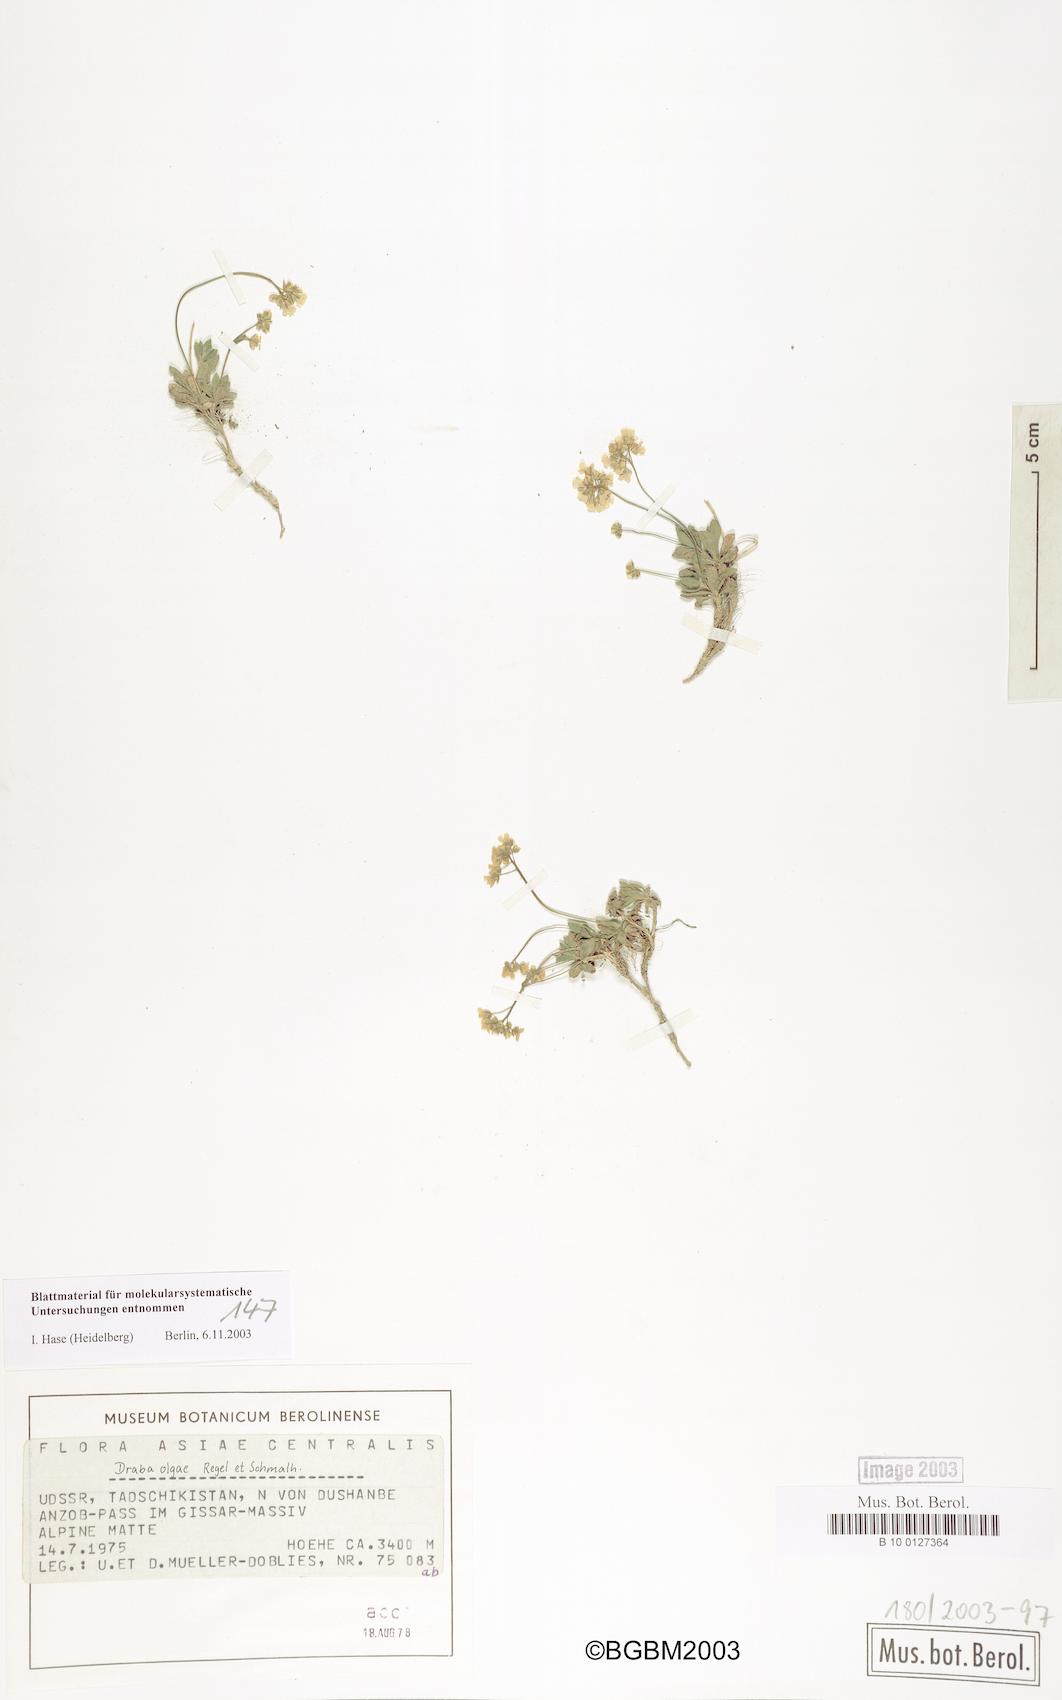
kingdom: Plantae
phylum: Tracheophyta
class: Magnoliopsida
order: Brassicales
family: Brassicaceae
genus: Draba
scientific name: Draba olgae
